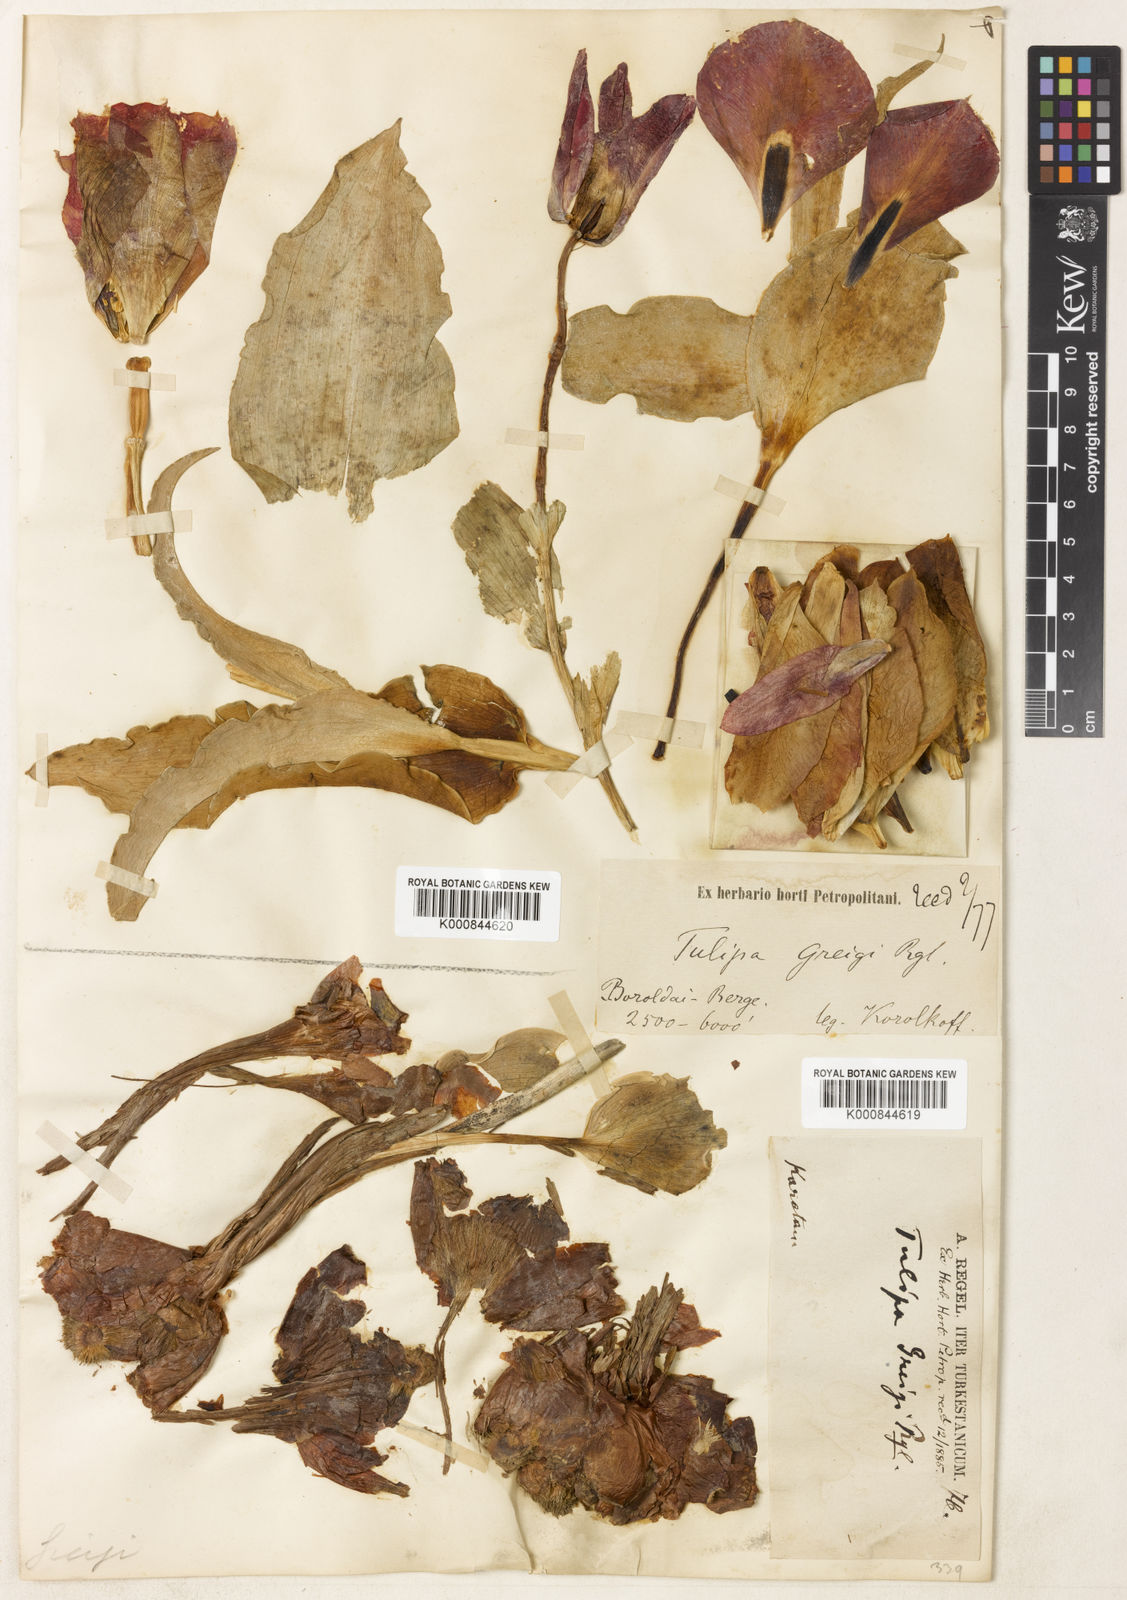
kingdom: Plantae
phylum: Tracheophyta
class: Liliopsida
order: Liliales
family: Liliaceae
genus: Tulipa
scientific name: Tulipa greigii
